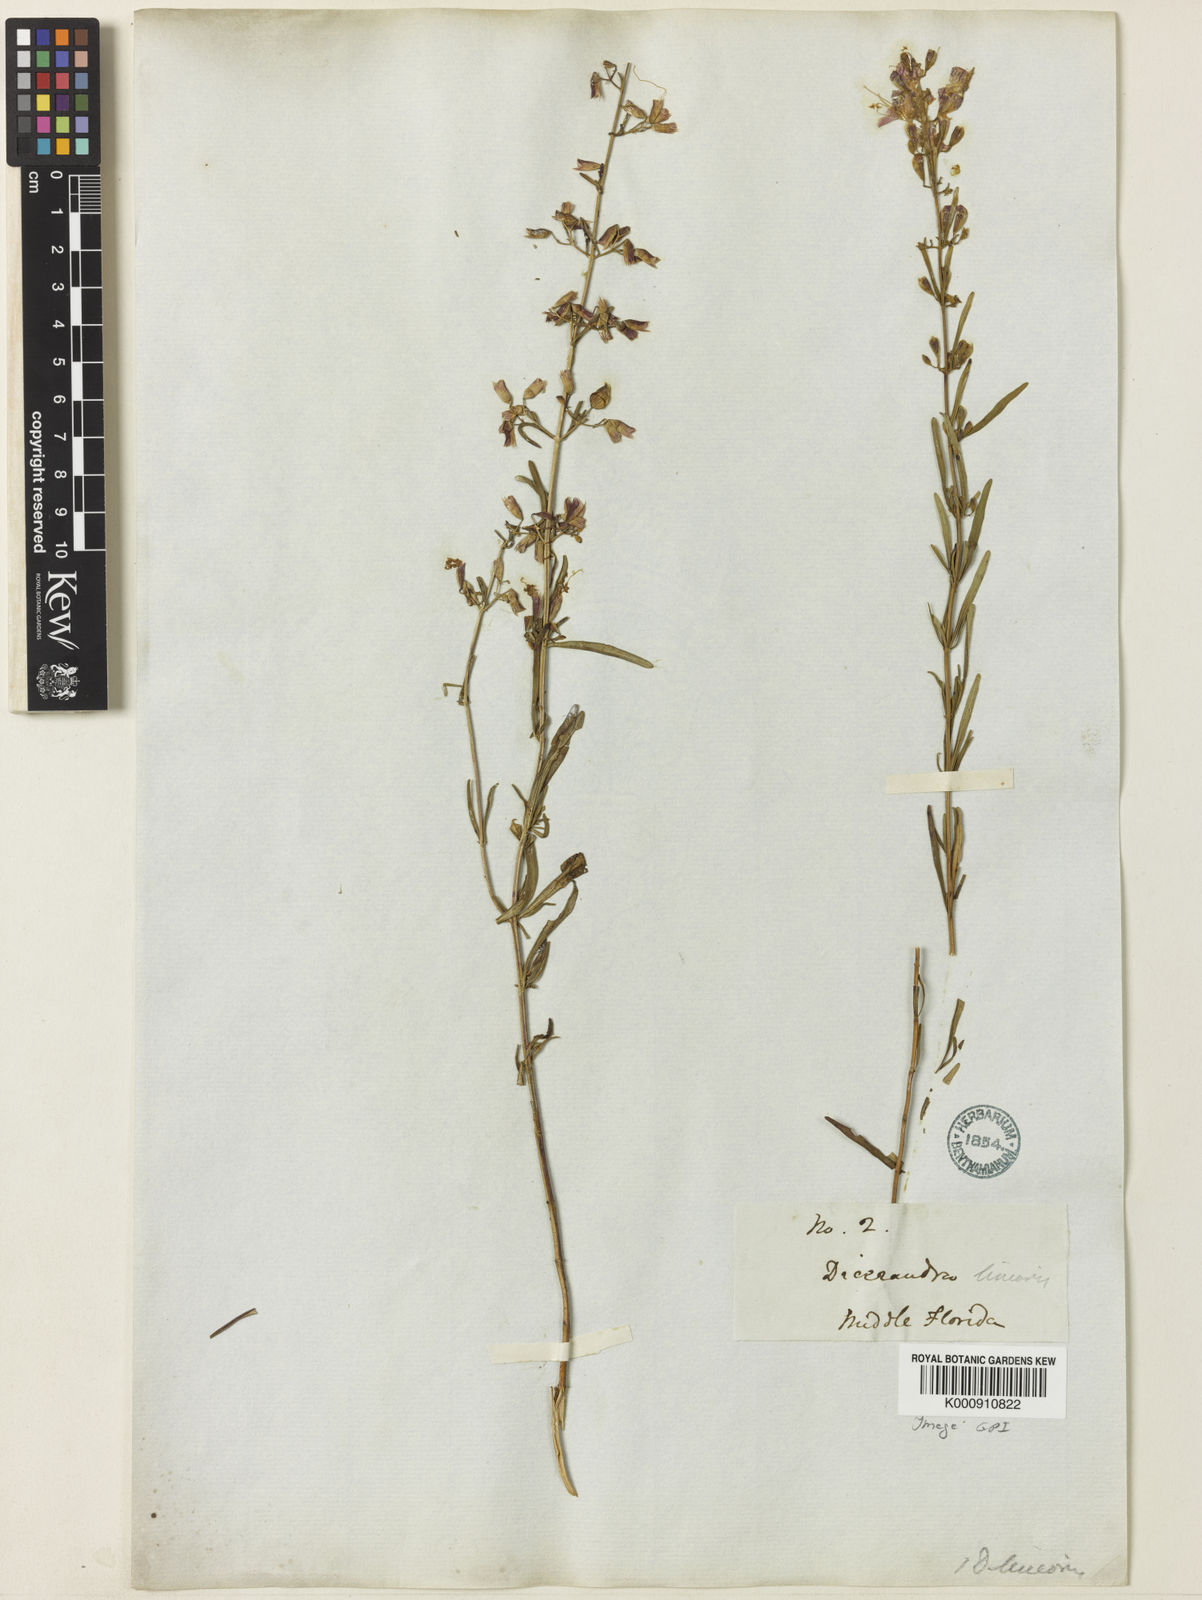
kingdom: Plantae
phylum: Tracheophyta
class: Magnoliopsida
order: Lamiales
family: Lamiaceae
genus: Dicerandra
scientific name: Dicerandra linearifolia
